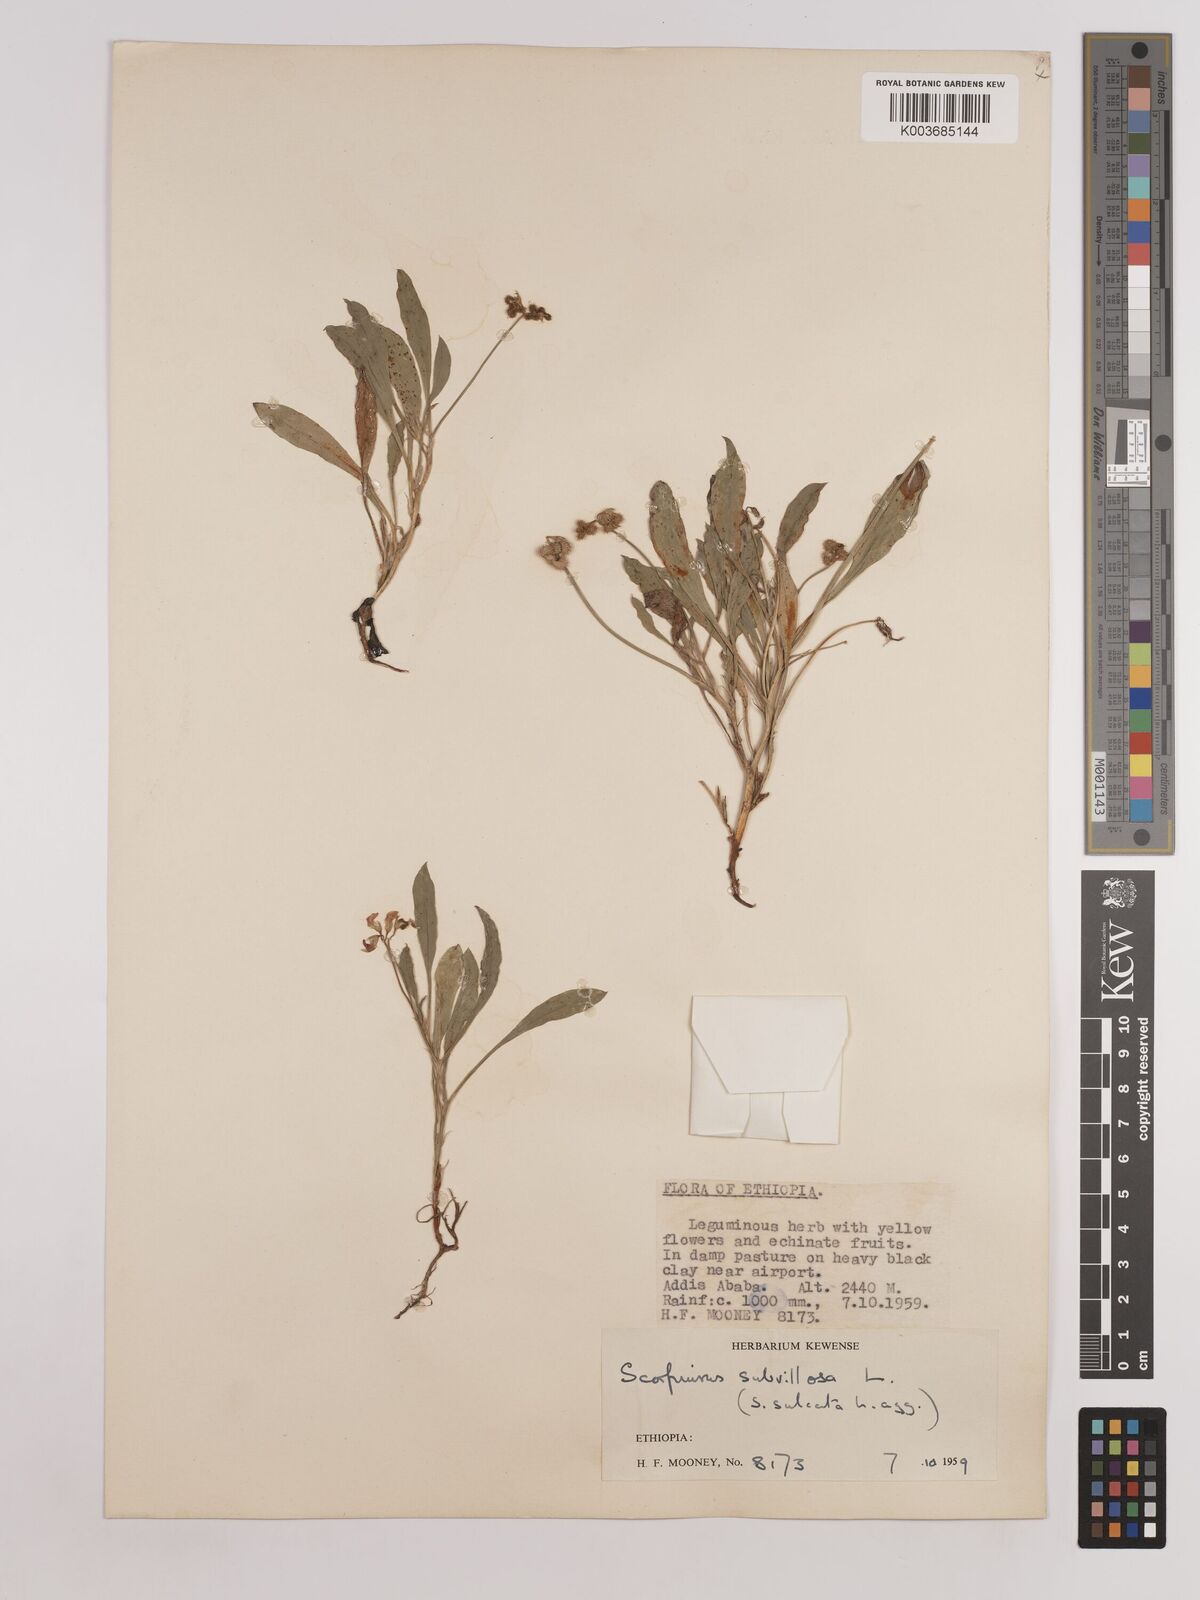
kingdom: Plantae
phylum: Tracheophyta
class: Magnoliopsida
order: Fabales
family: Fabaceae
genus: Scorpiurus
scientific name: Scorpiurus muricatus
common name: Caterpillar-plant
